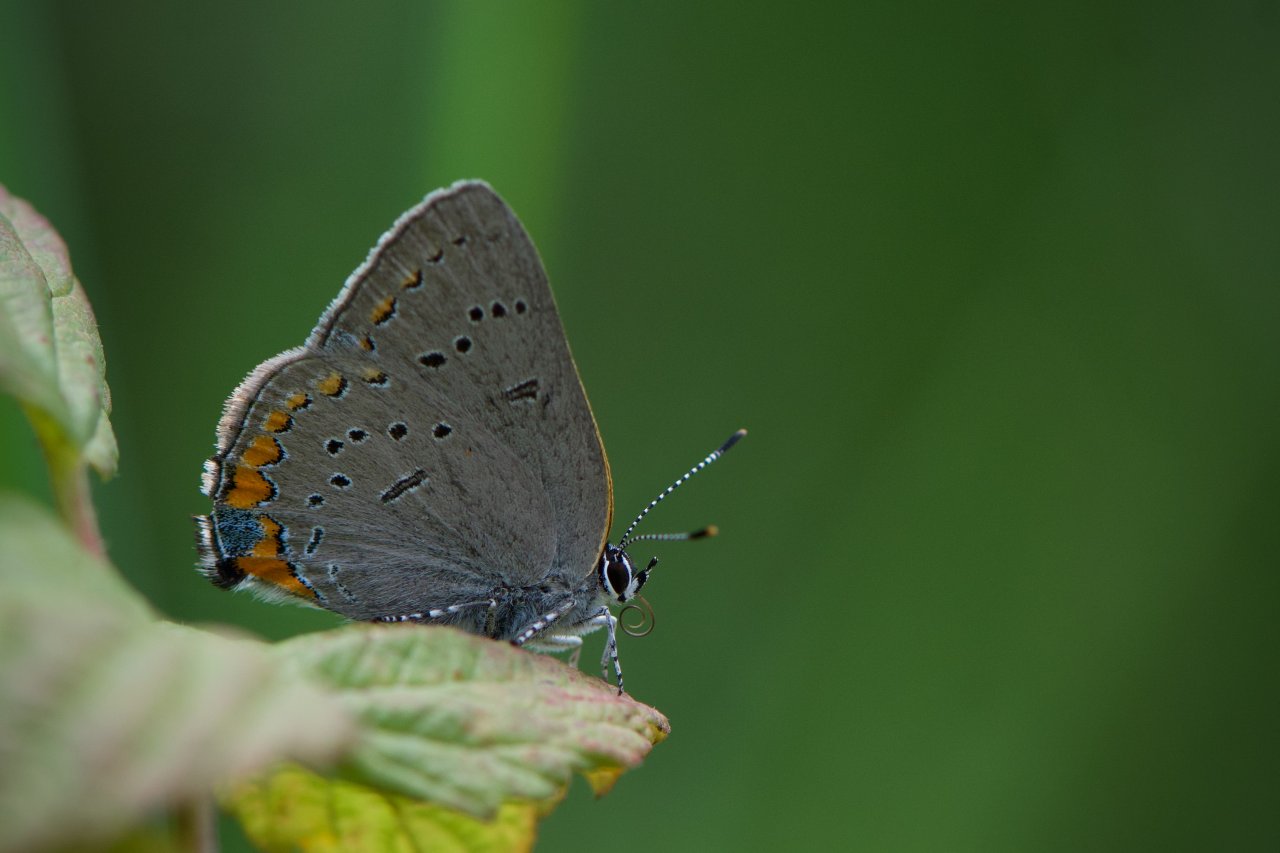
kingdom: Animalia
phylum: Arthropoda
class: Insecta
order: Lepidoptera
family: Lycaenidae
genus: Strymon
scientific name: Strymon acadica
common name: Acadian Hairstreak
